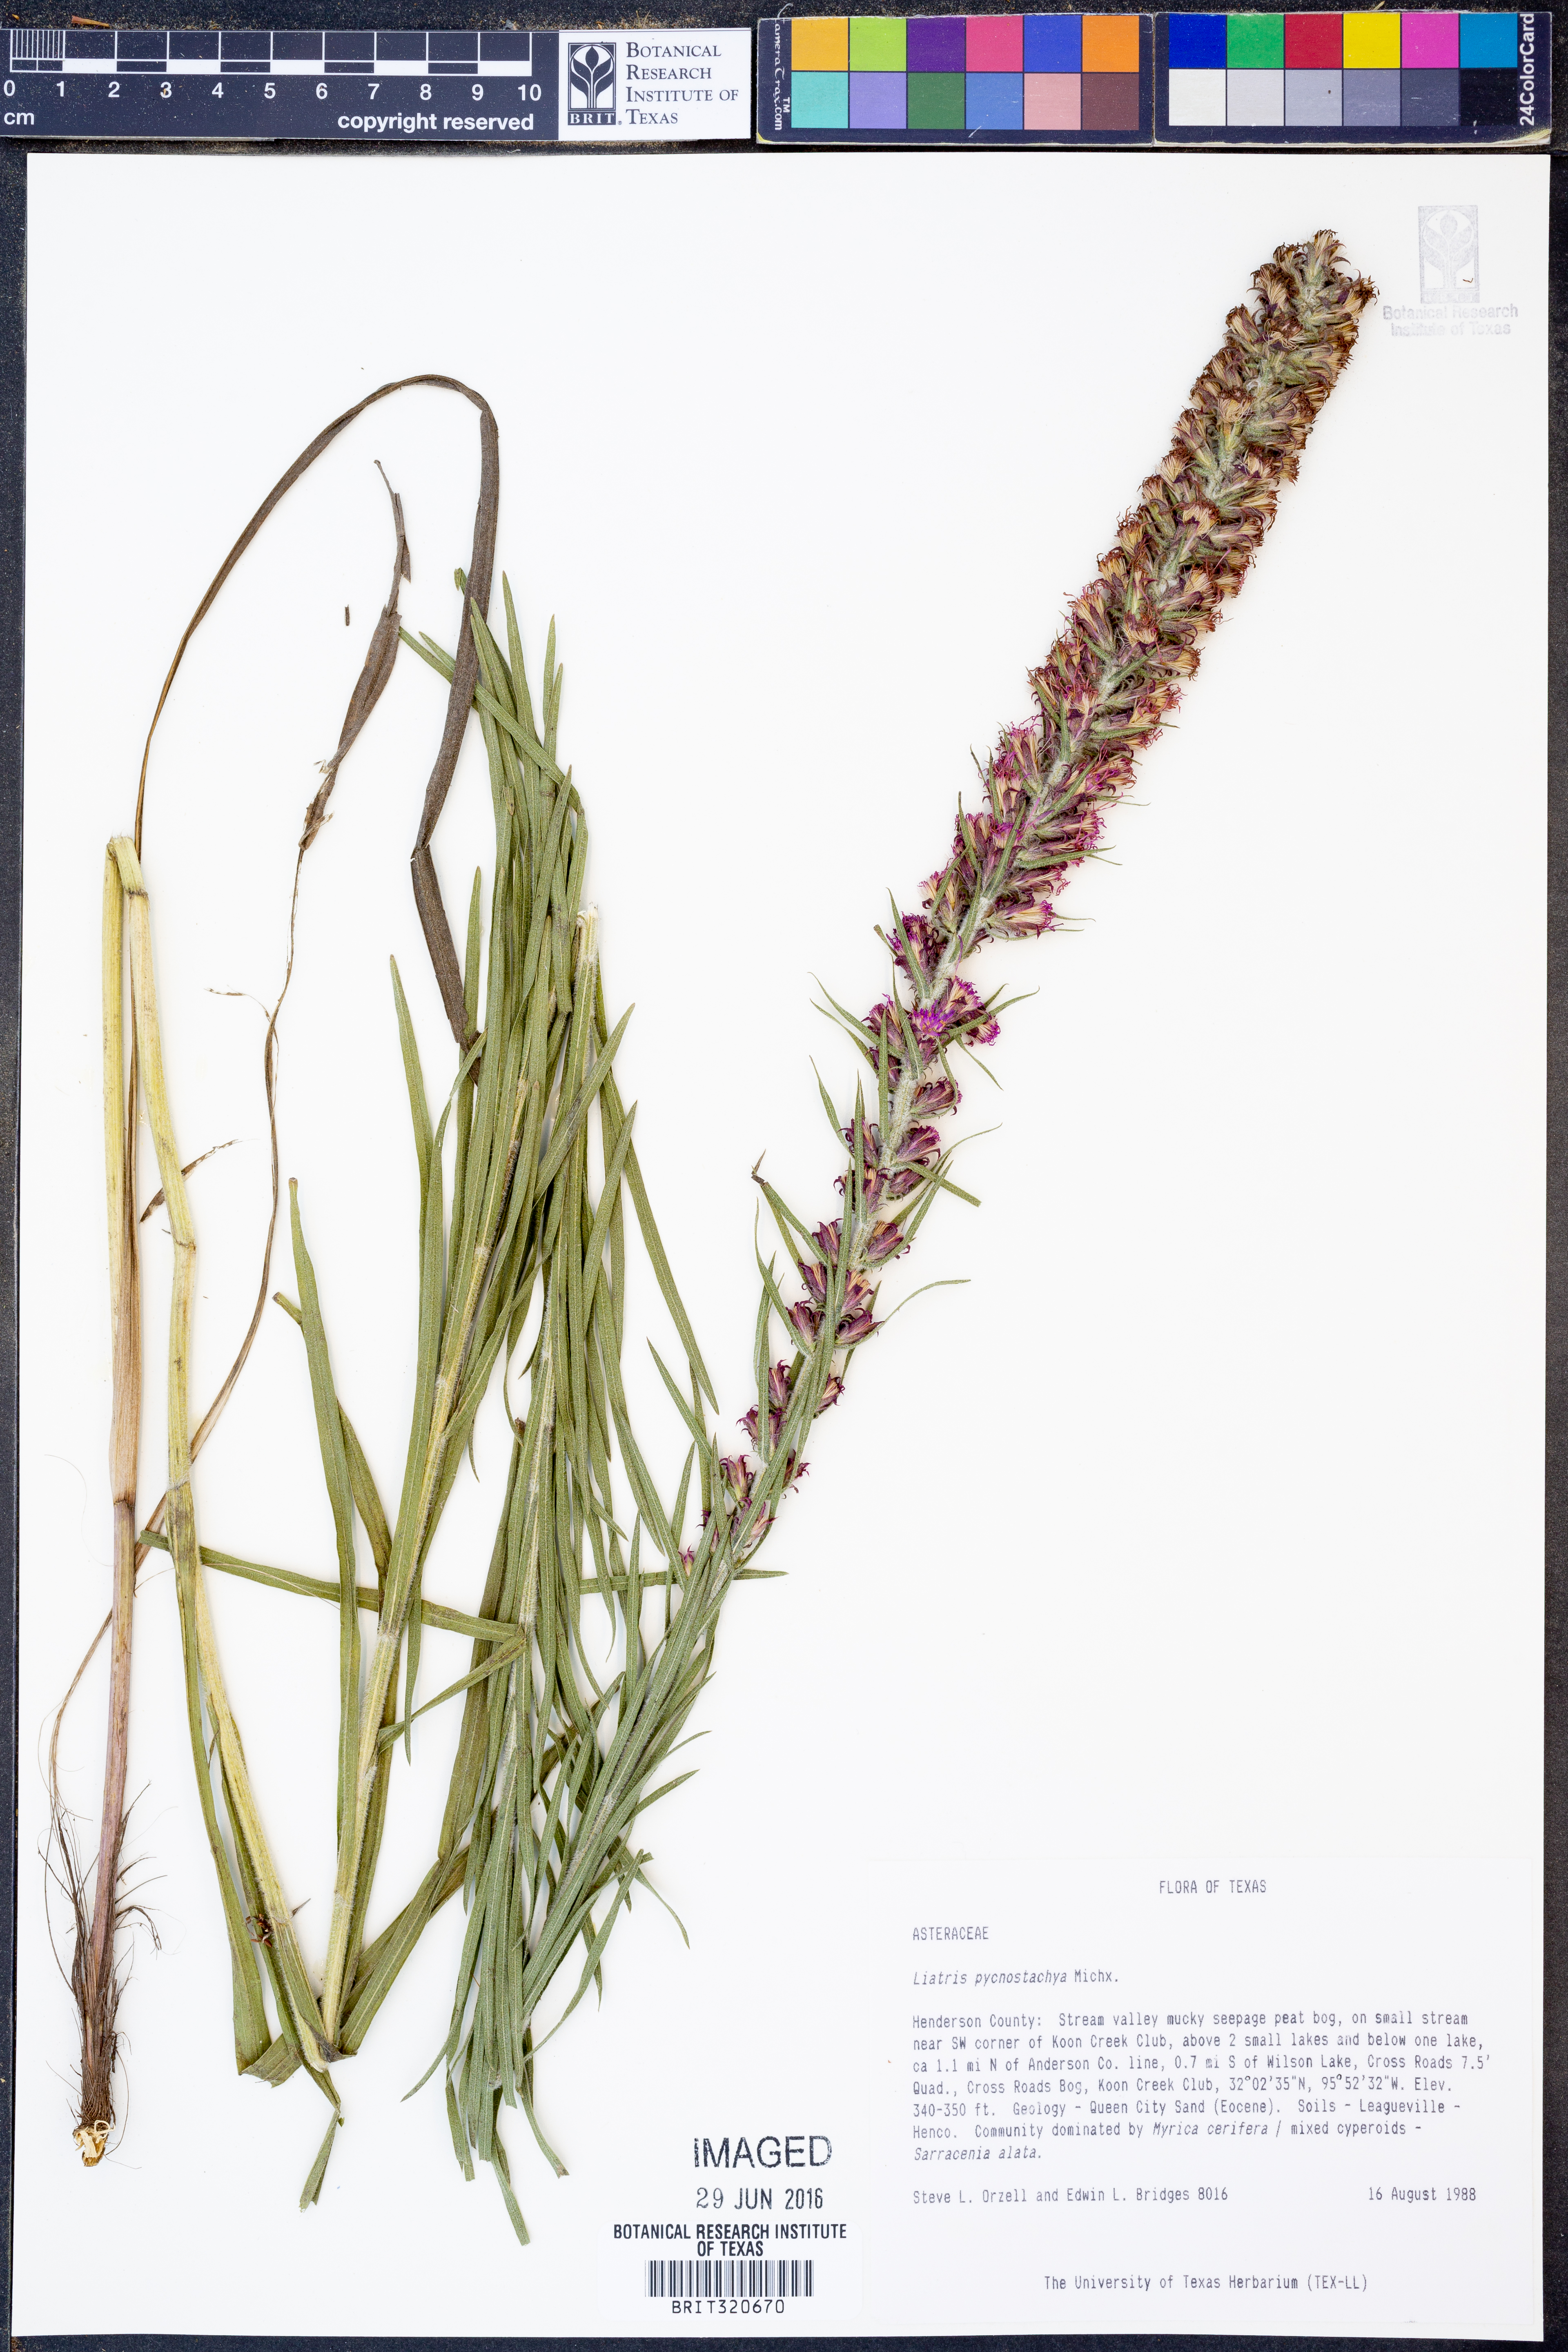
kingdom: Plantae
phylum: Tracheophyta
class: Magnoliopsida
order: Asterales
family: Asteraceae
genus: Liatris
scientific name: Liatris pycnostachya
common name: Cattail gayfeather
